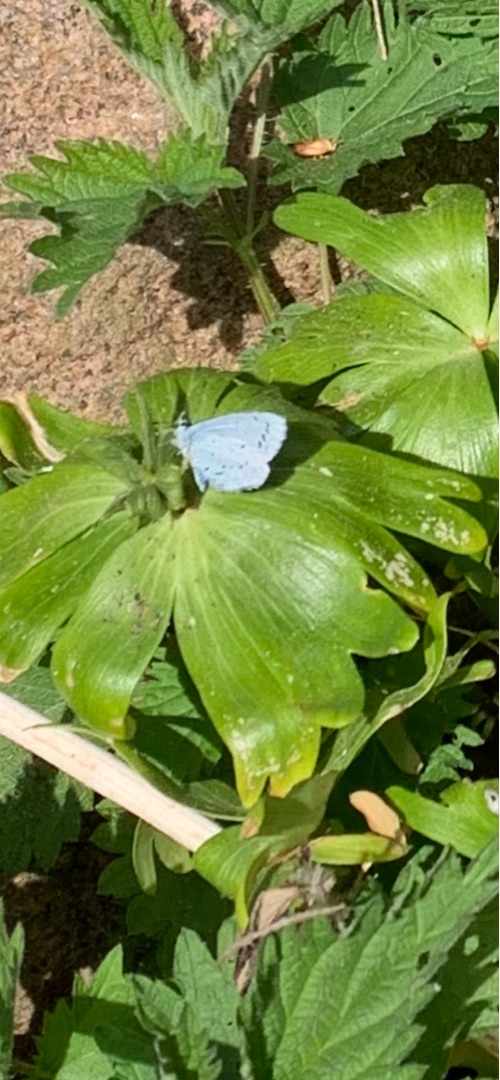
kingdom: Animalia
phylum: Arthropoda
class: Insecta
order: Lepidoptera
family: Lycaenidae
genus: Celastrina
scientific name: Celastrina argiolus
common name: Skovblåfugl
